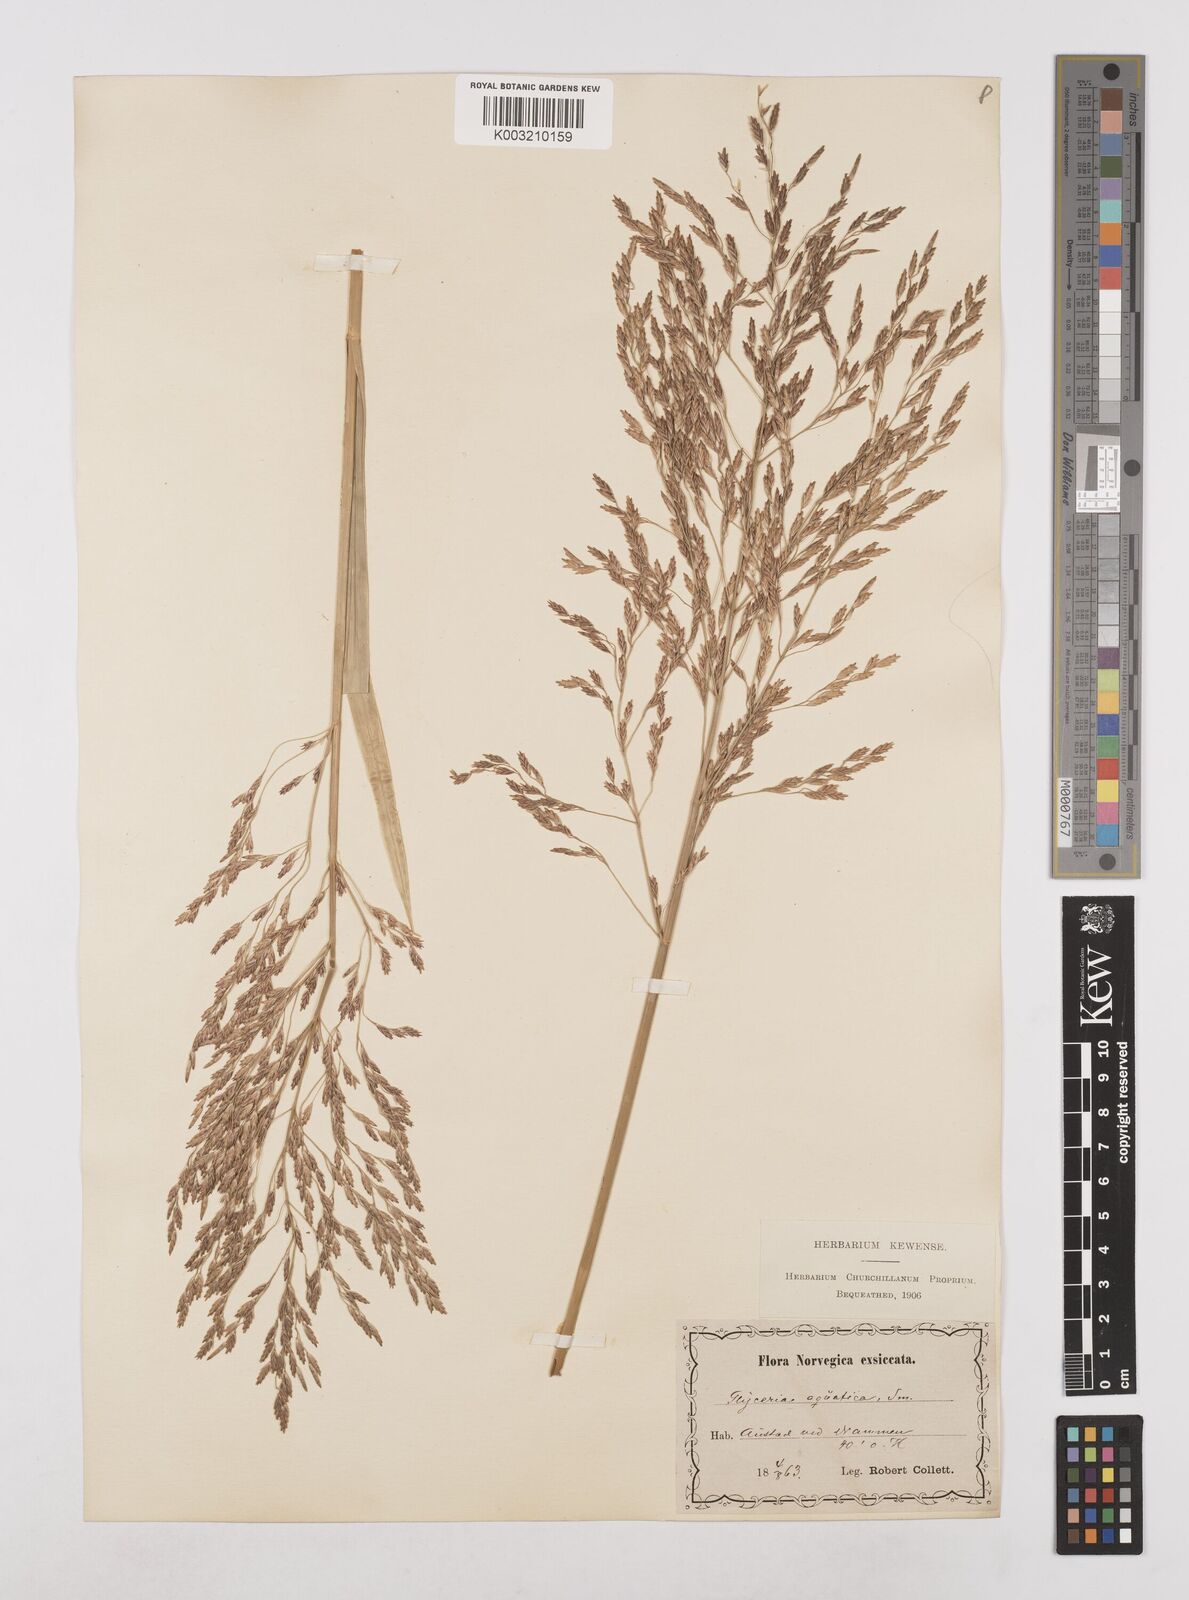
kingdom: Plantae
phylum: Tracheophyta
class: Liliopsida
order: Poales
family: Poaceae
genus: Glyceria
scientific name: Glyceria maxima
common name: Reed mannagrass
